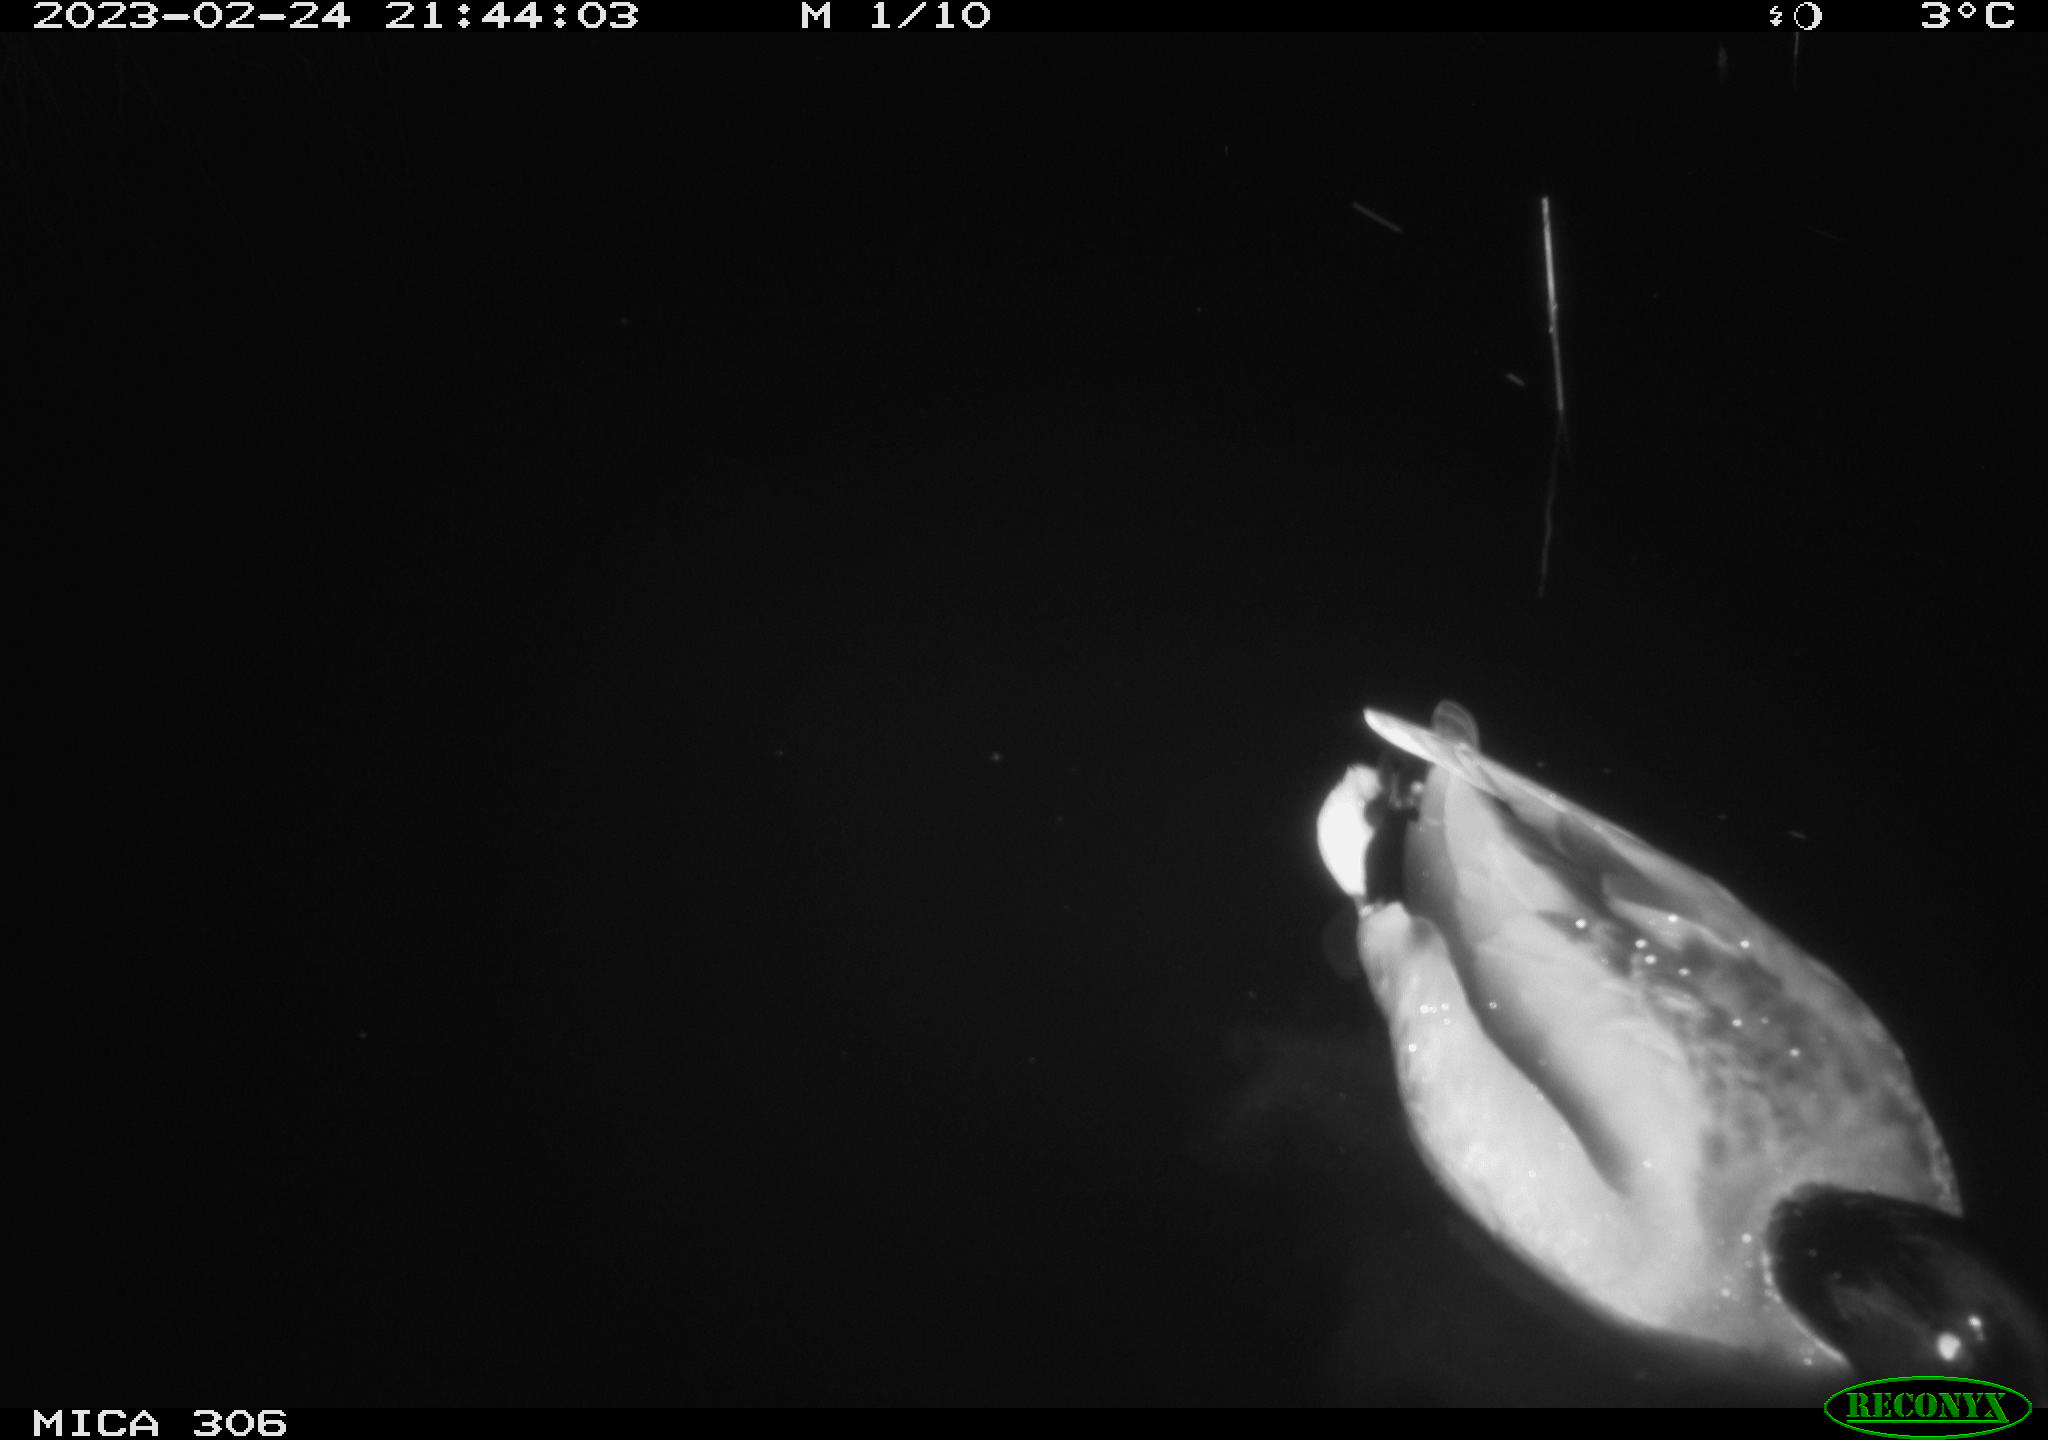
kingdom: Animalia
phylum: Chordata
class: Aves
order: Anseriformes
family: Anatidae
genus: Anas
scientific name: Anas
